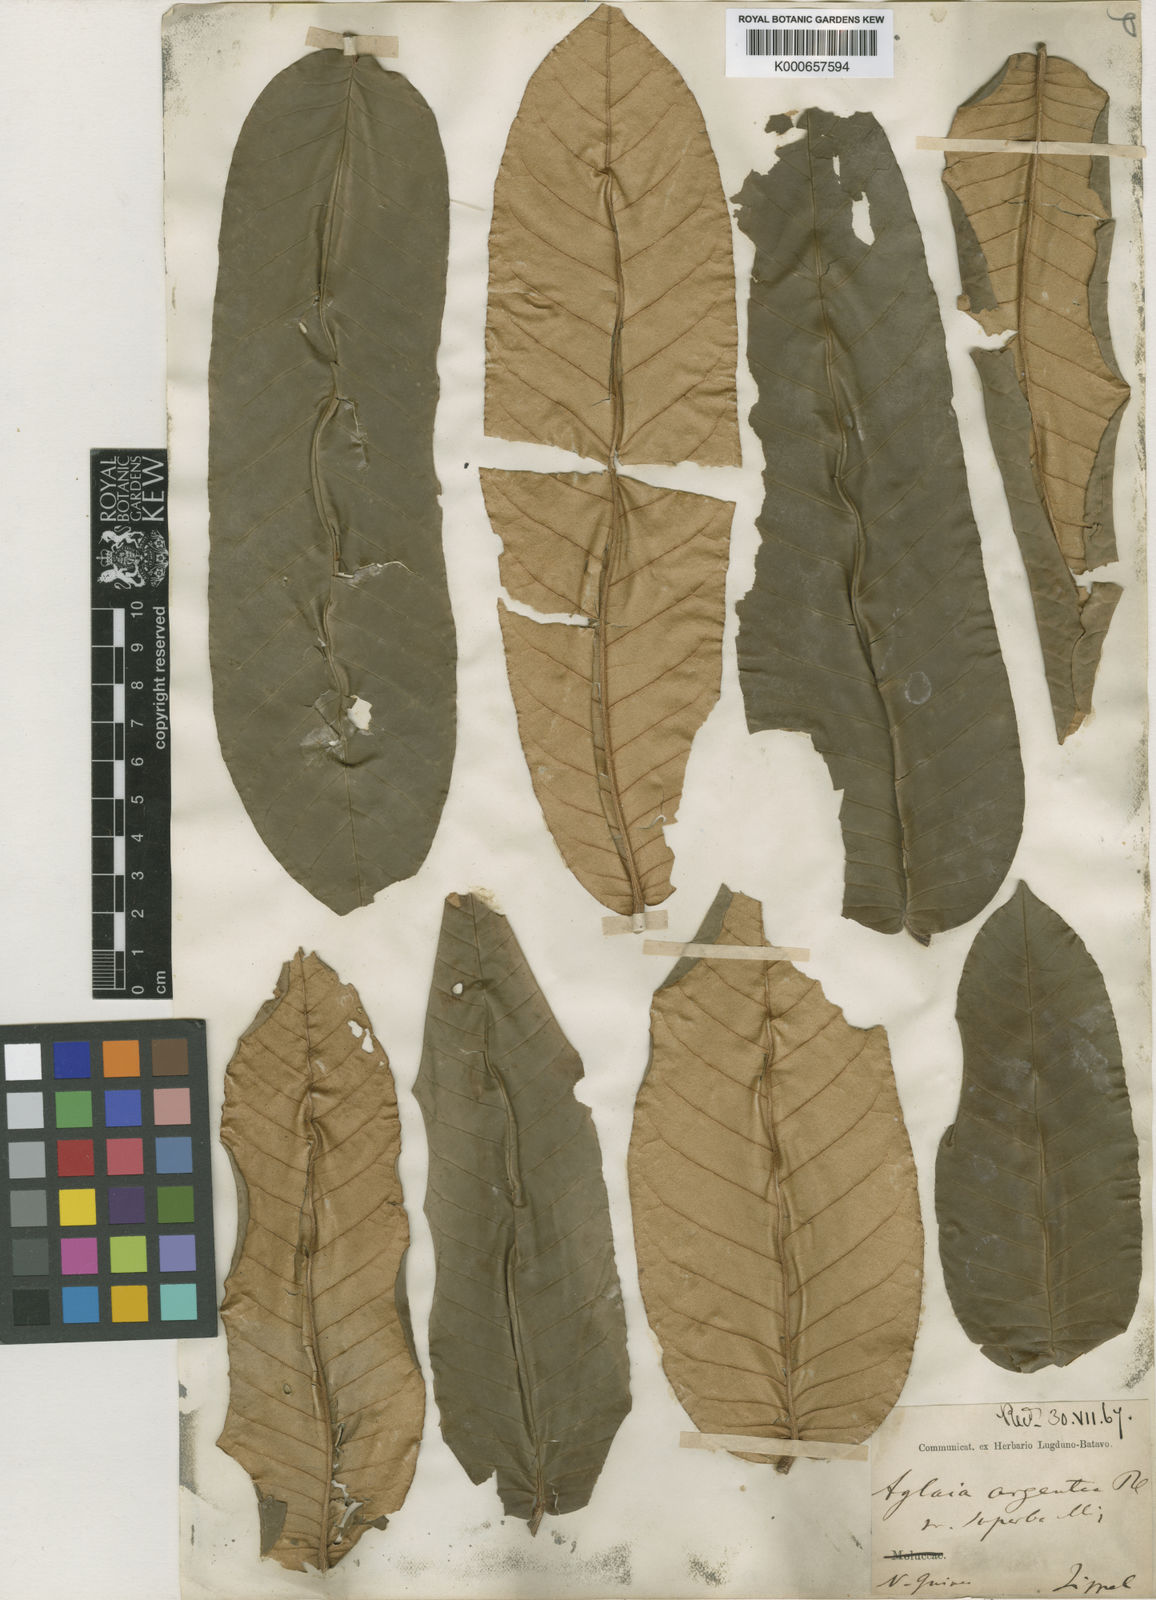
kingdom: Plantae
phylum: Tracheophyta
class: Magnoliopsida
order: Sapindales
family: Meliaceae
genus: Aglaia
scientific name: Aglaia argentea
